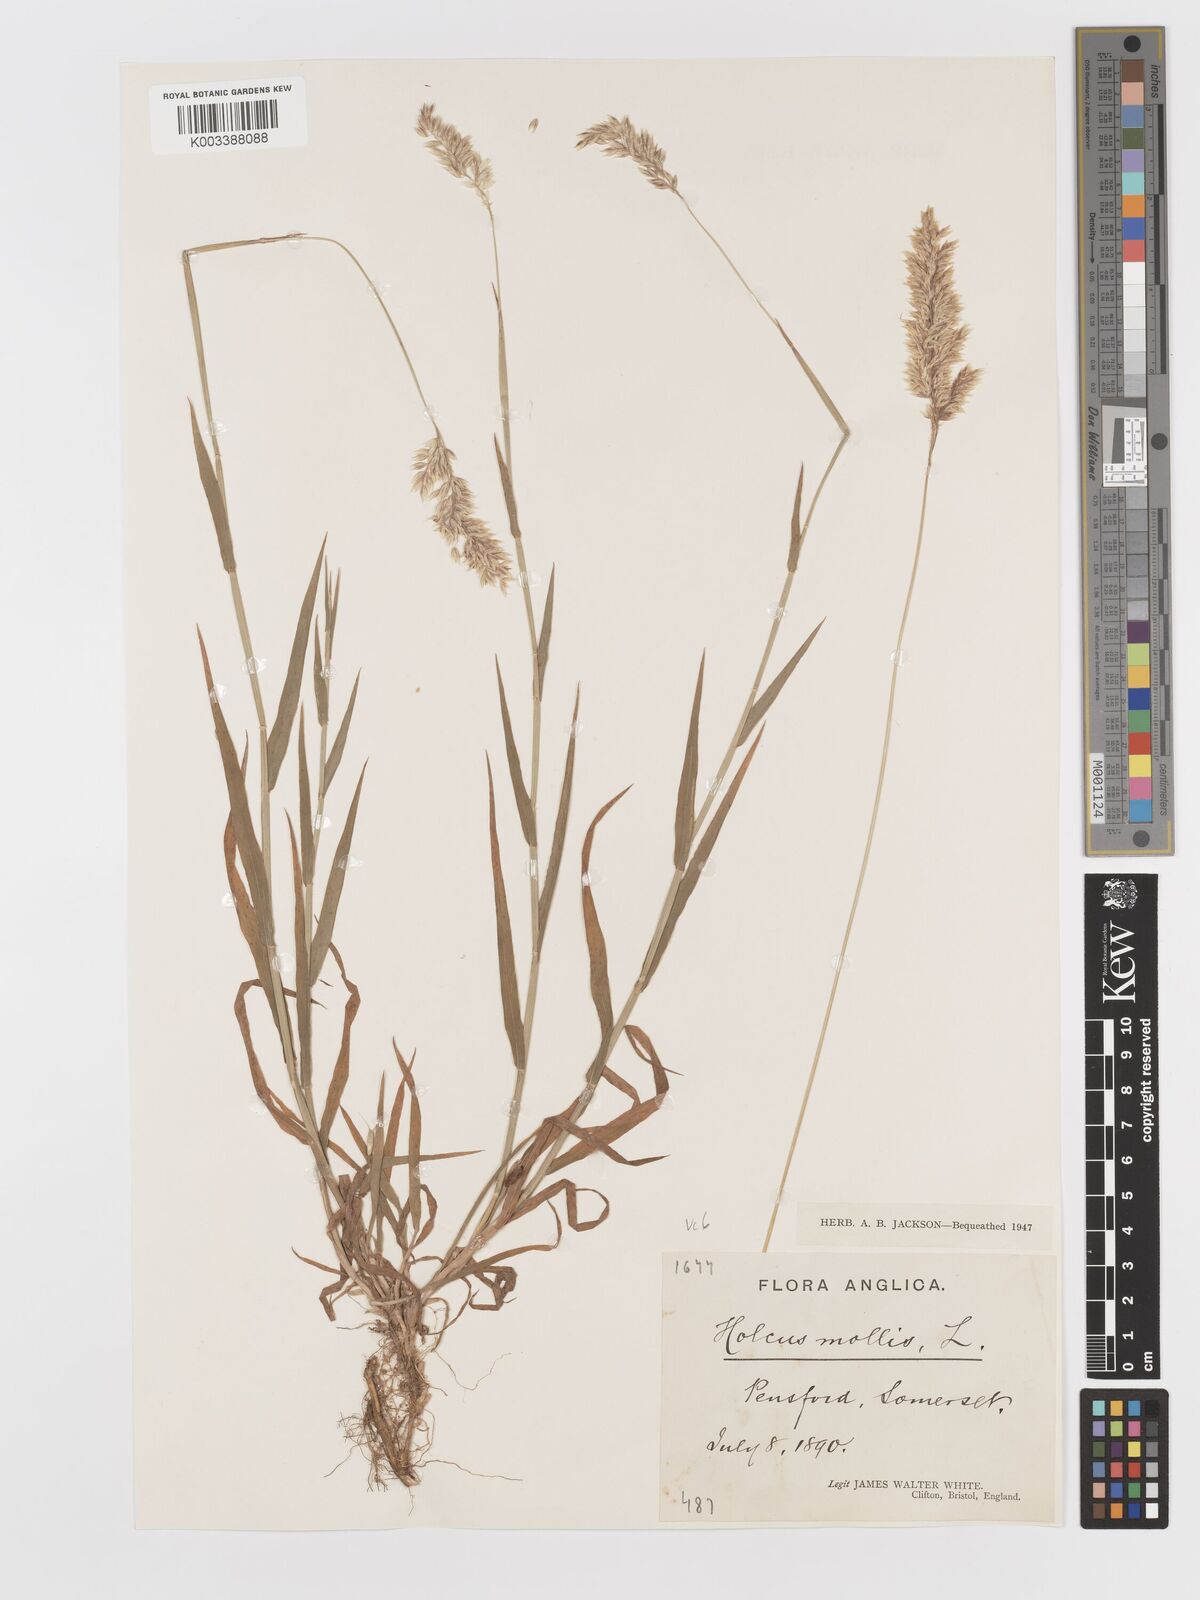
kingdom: Plantae
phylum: Tracheophyta
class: Liliopsida
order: Poales
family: Poaceae
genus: Holcus
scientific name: Holcus mollis
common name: Creeping velvetgrass
